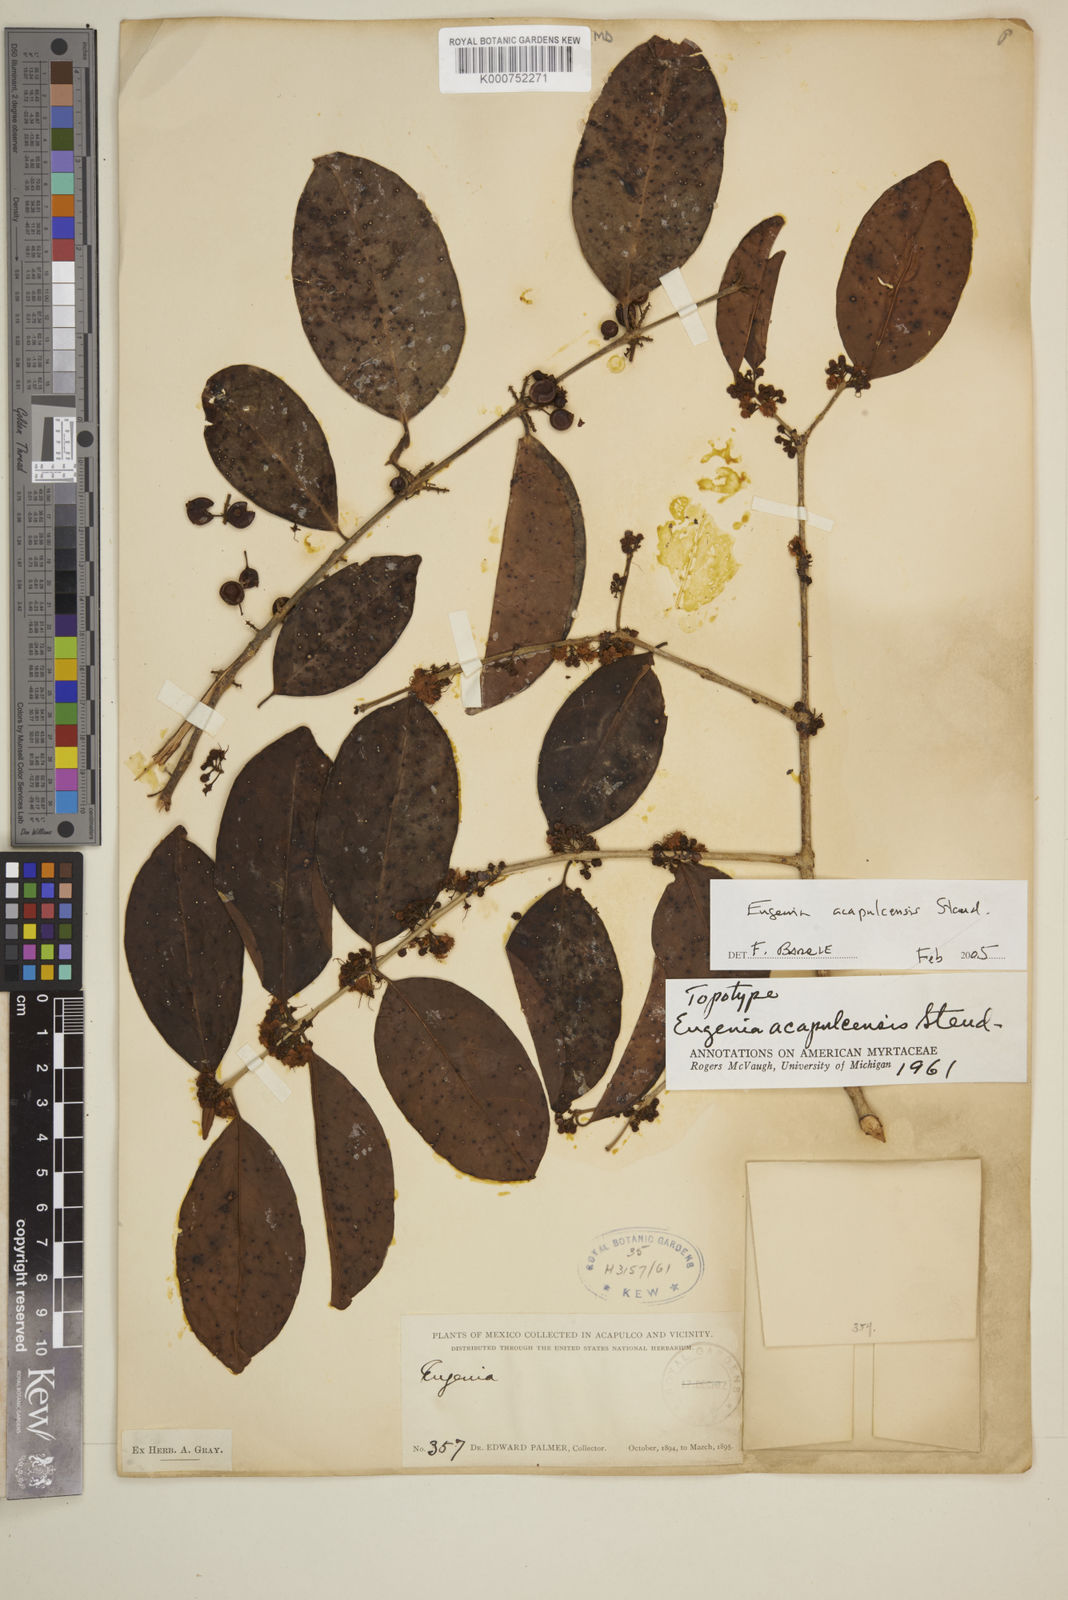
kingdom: Plantae
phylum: Tracheophyta
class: Magnoliopsida
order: Myrtales
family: Myrtaceae
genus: Eugenia
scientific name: Eugenia acapulcensis
